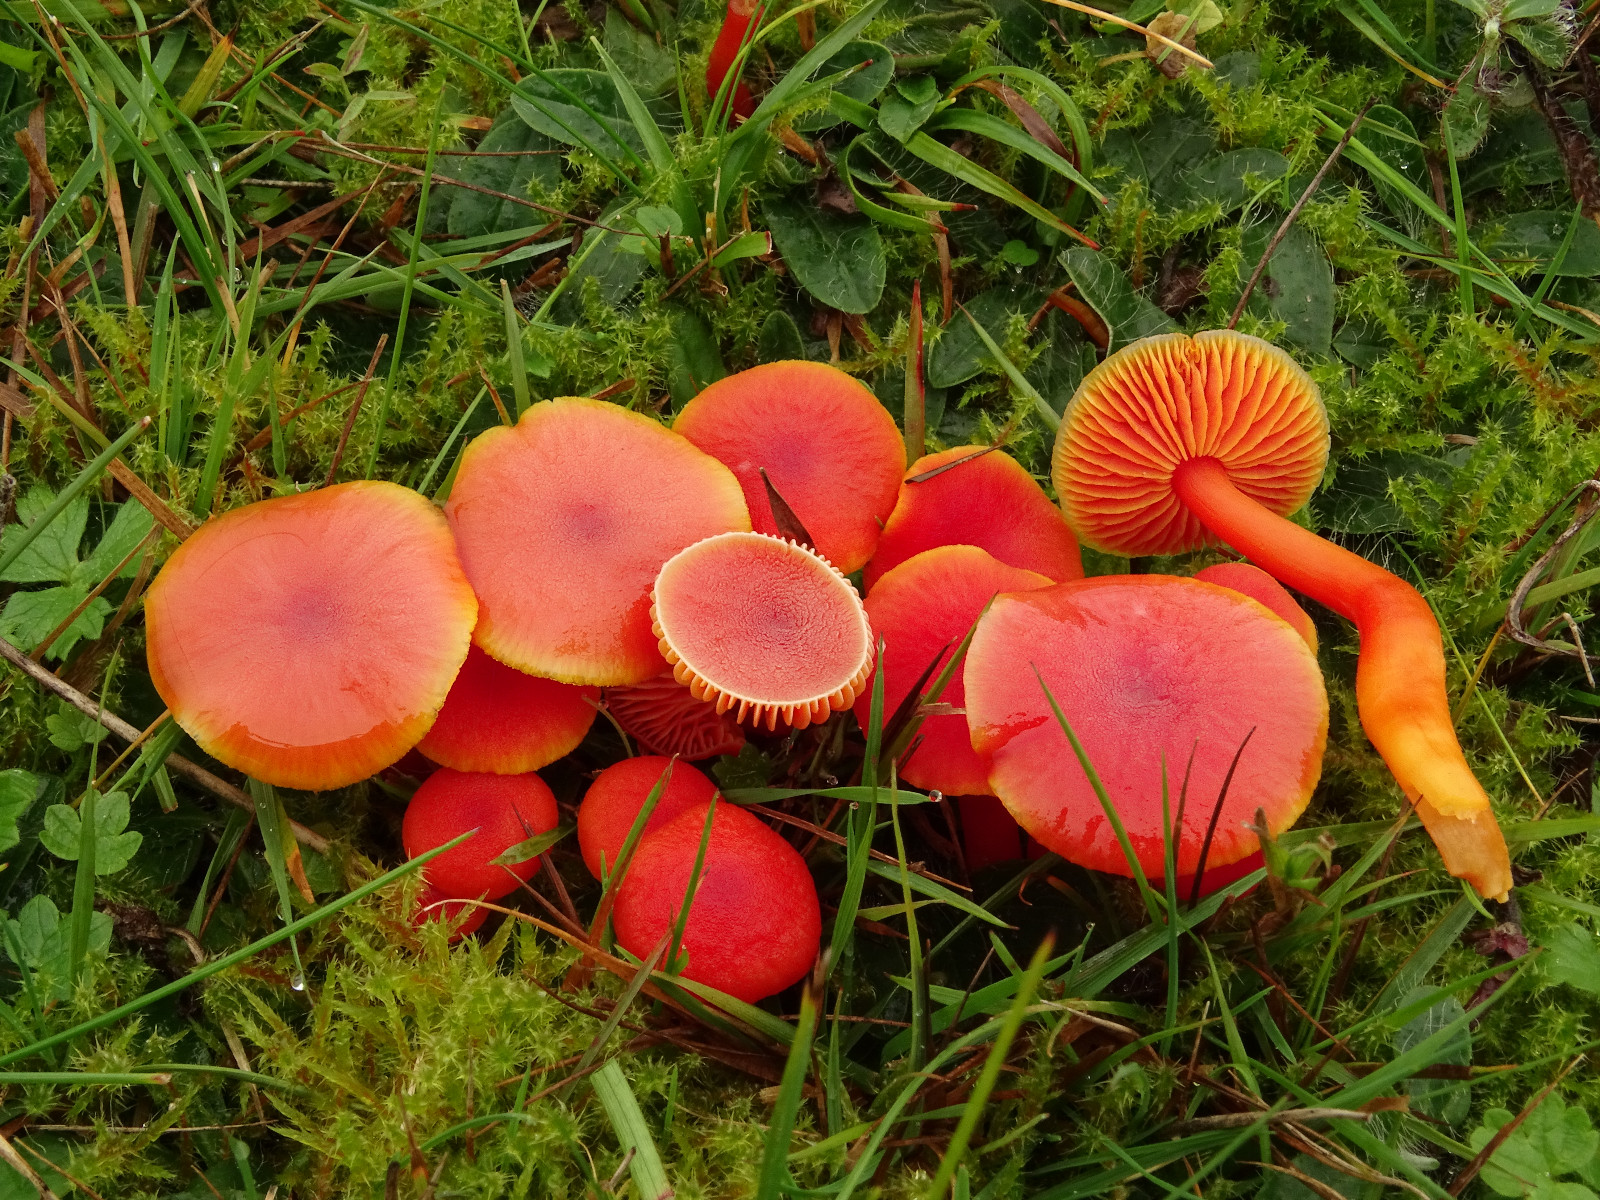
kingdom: Fungi
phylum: Basidiomycota
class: Agaricomycetes
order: Agaricales
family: Hygrophoraceae
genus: Hygrocybe
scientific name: Hygrocybe miniata
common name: mønje-vokshat
